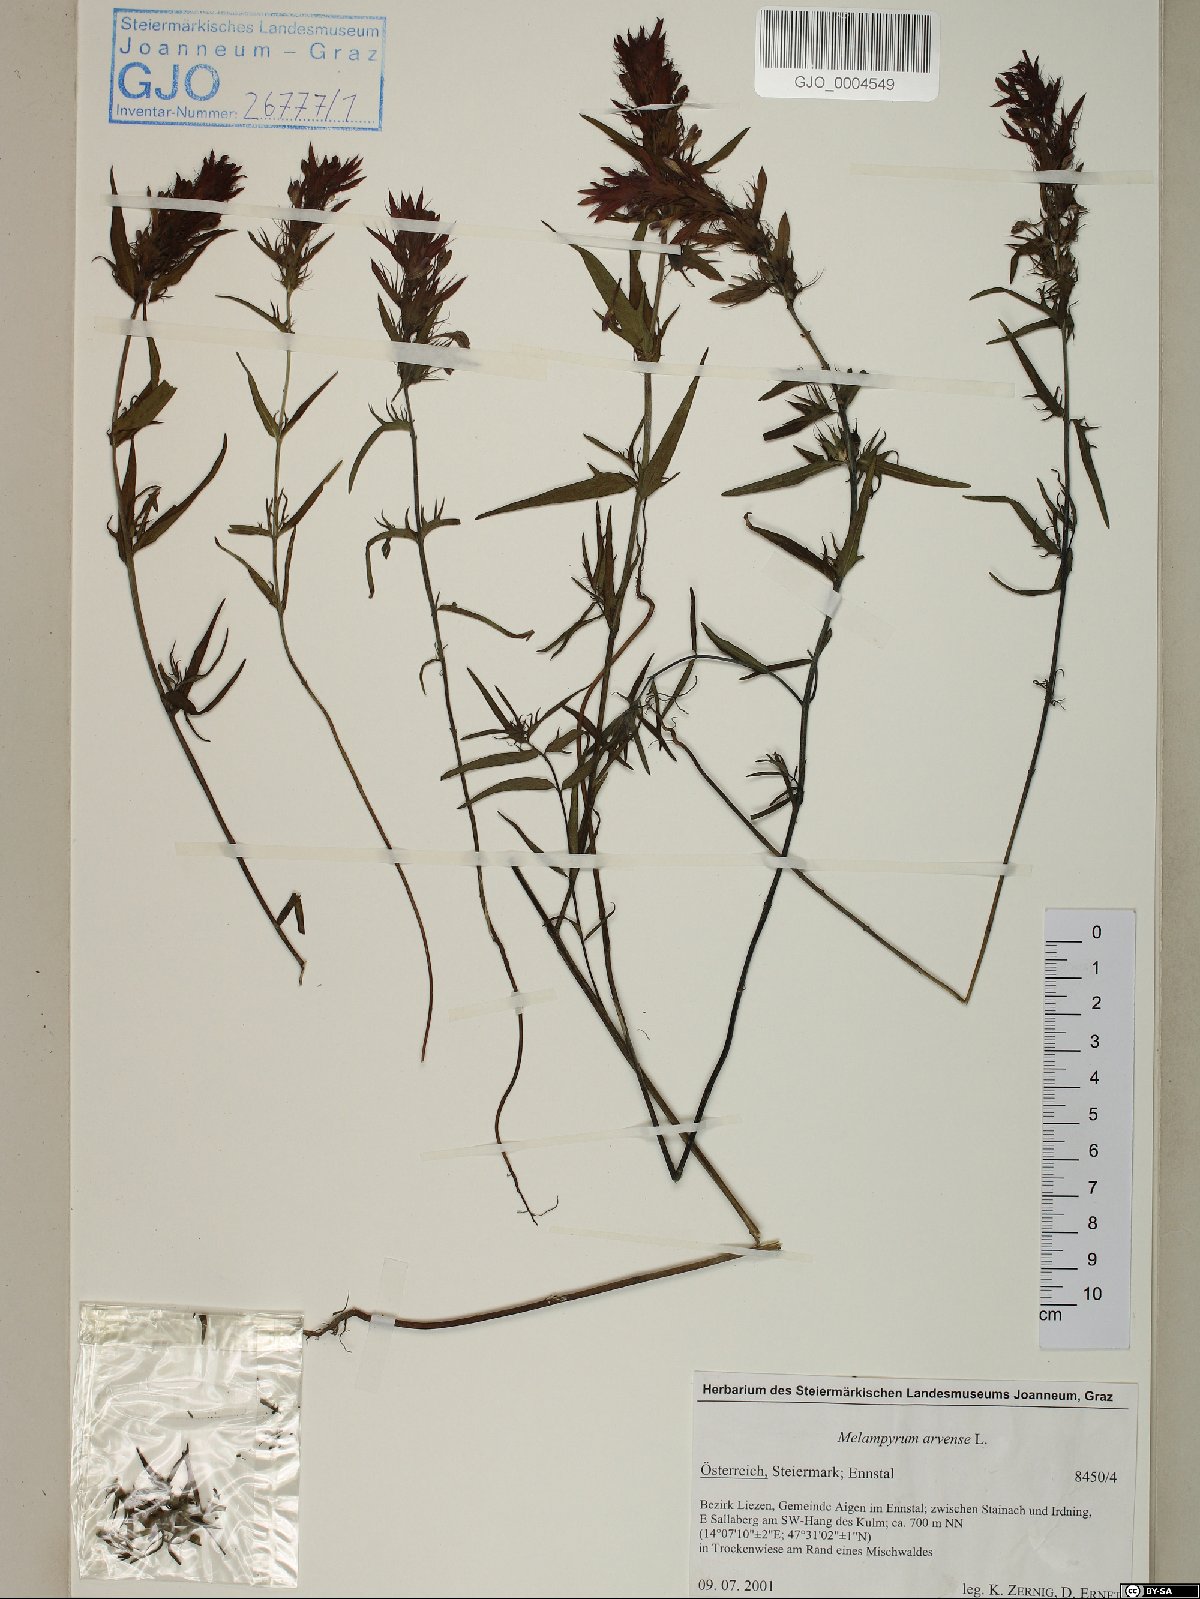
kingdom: Plantae
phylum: Tracheophyta
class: Magnoliopsida
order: Lamiales
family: Orobanchaceae
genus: Melampyrum
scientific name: Melampyrum arvense
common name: Field cow-wheat
